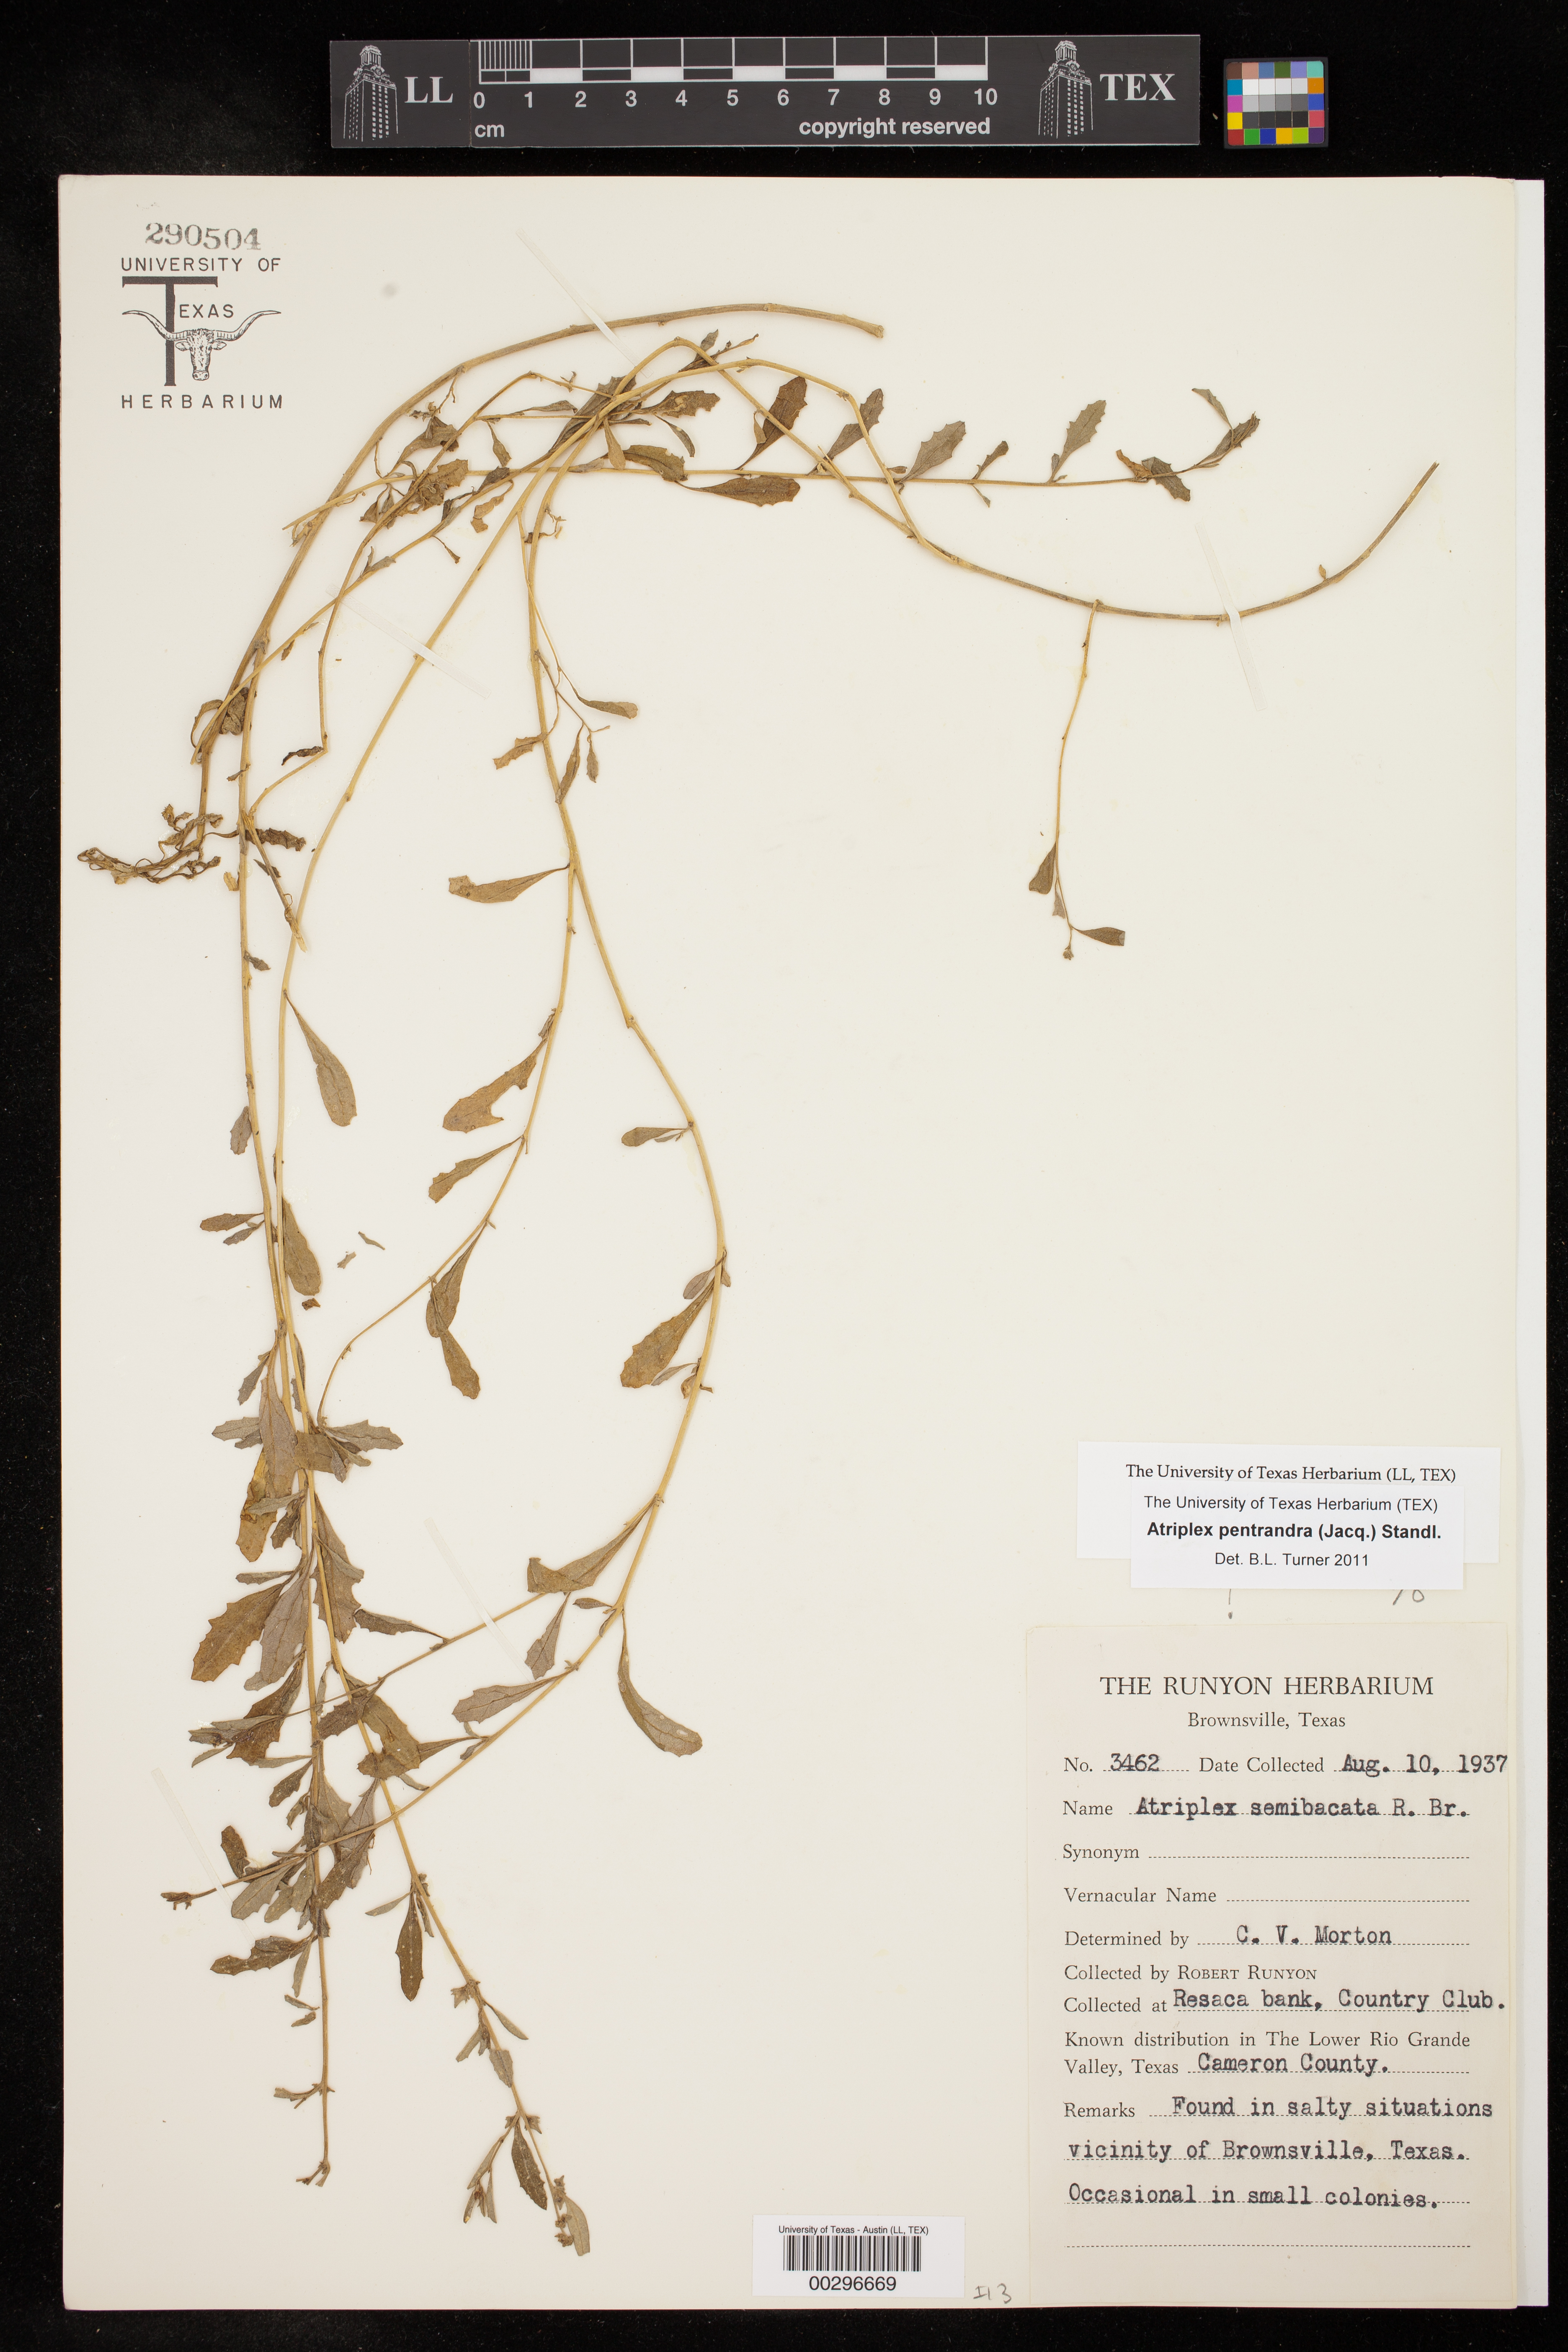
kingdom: Plantae
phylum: Tracheophyta
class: Magnoliopsida
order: Caryophyllales
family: Amaranthaceae
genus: Atriplex
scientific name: Atriplex cristata
